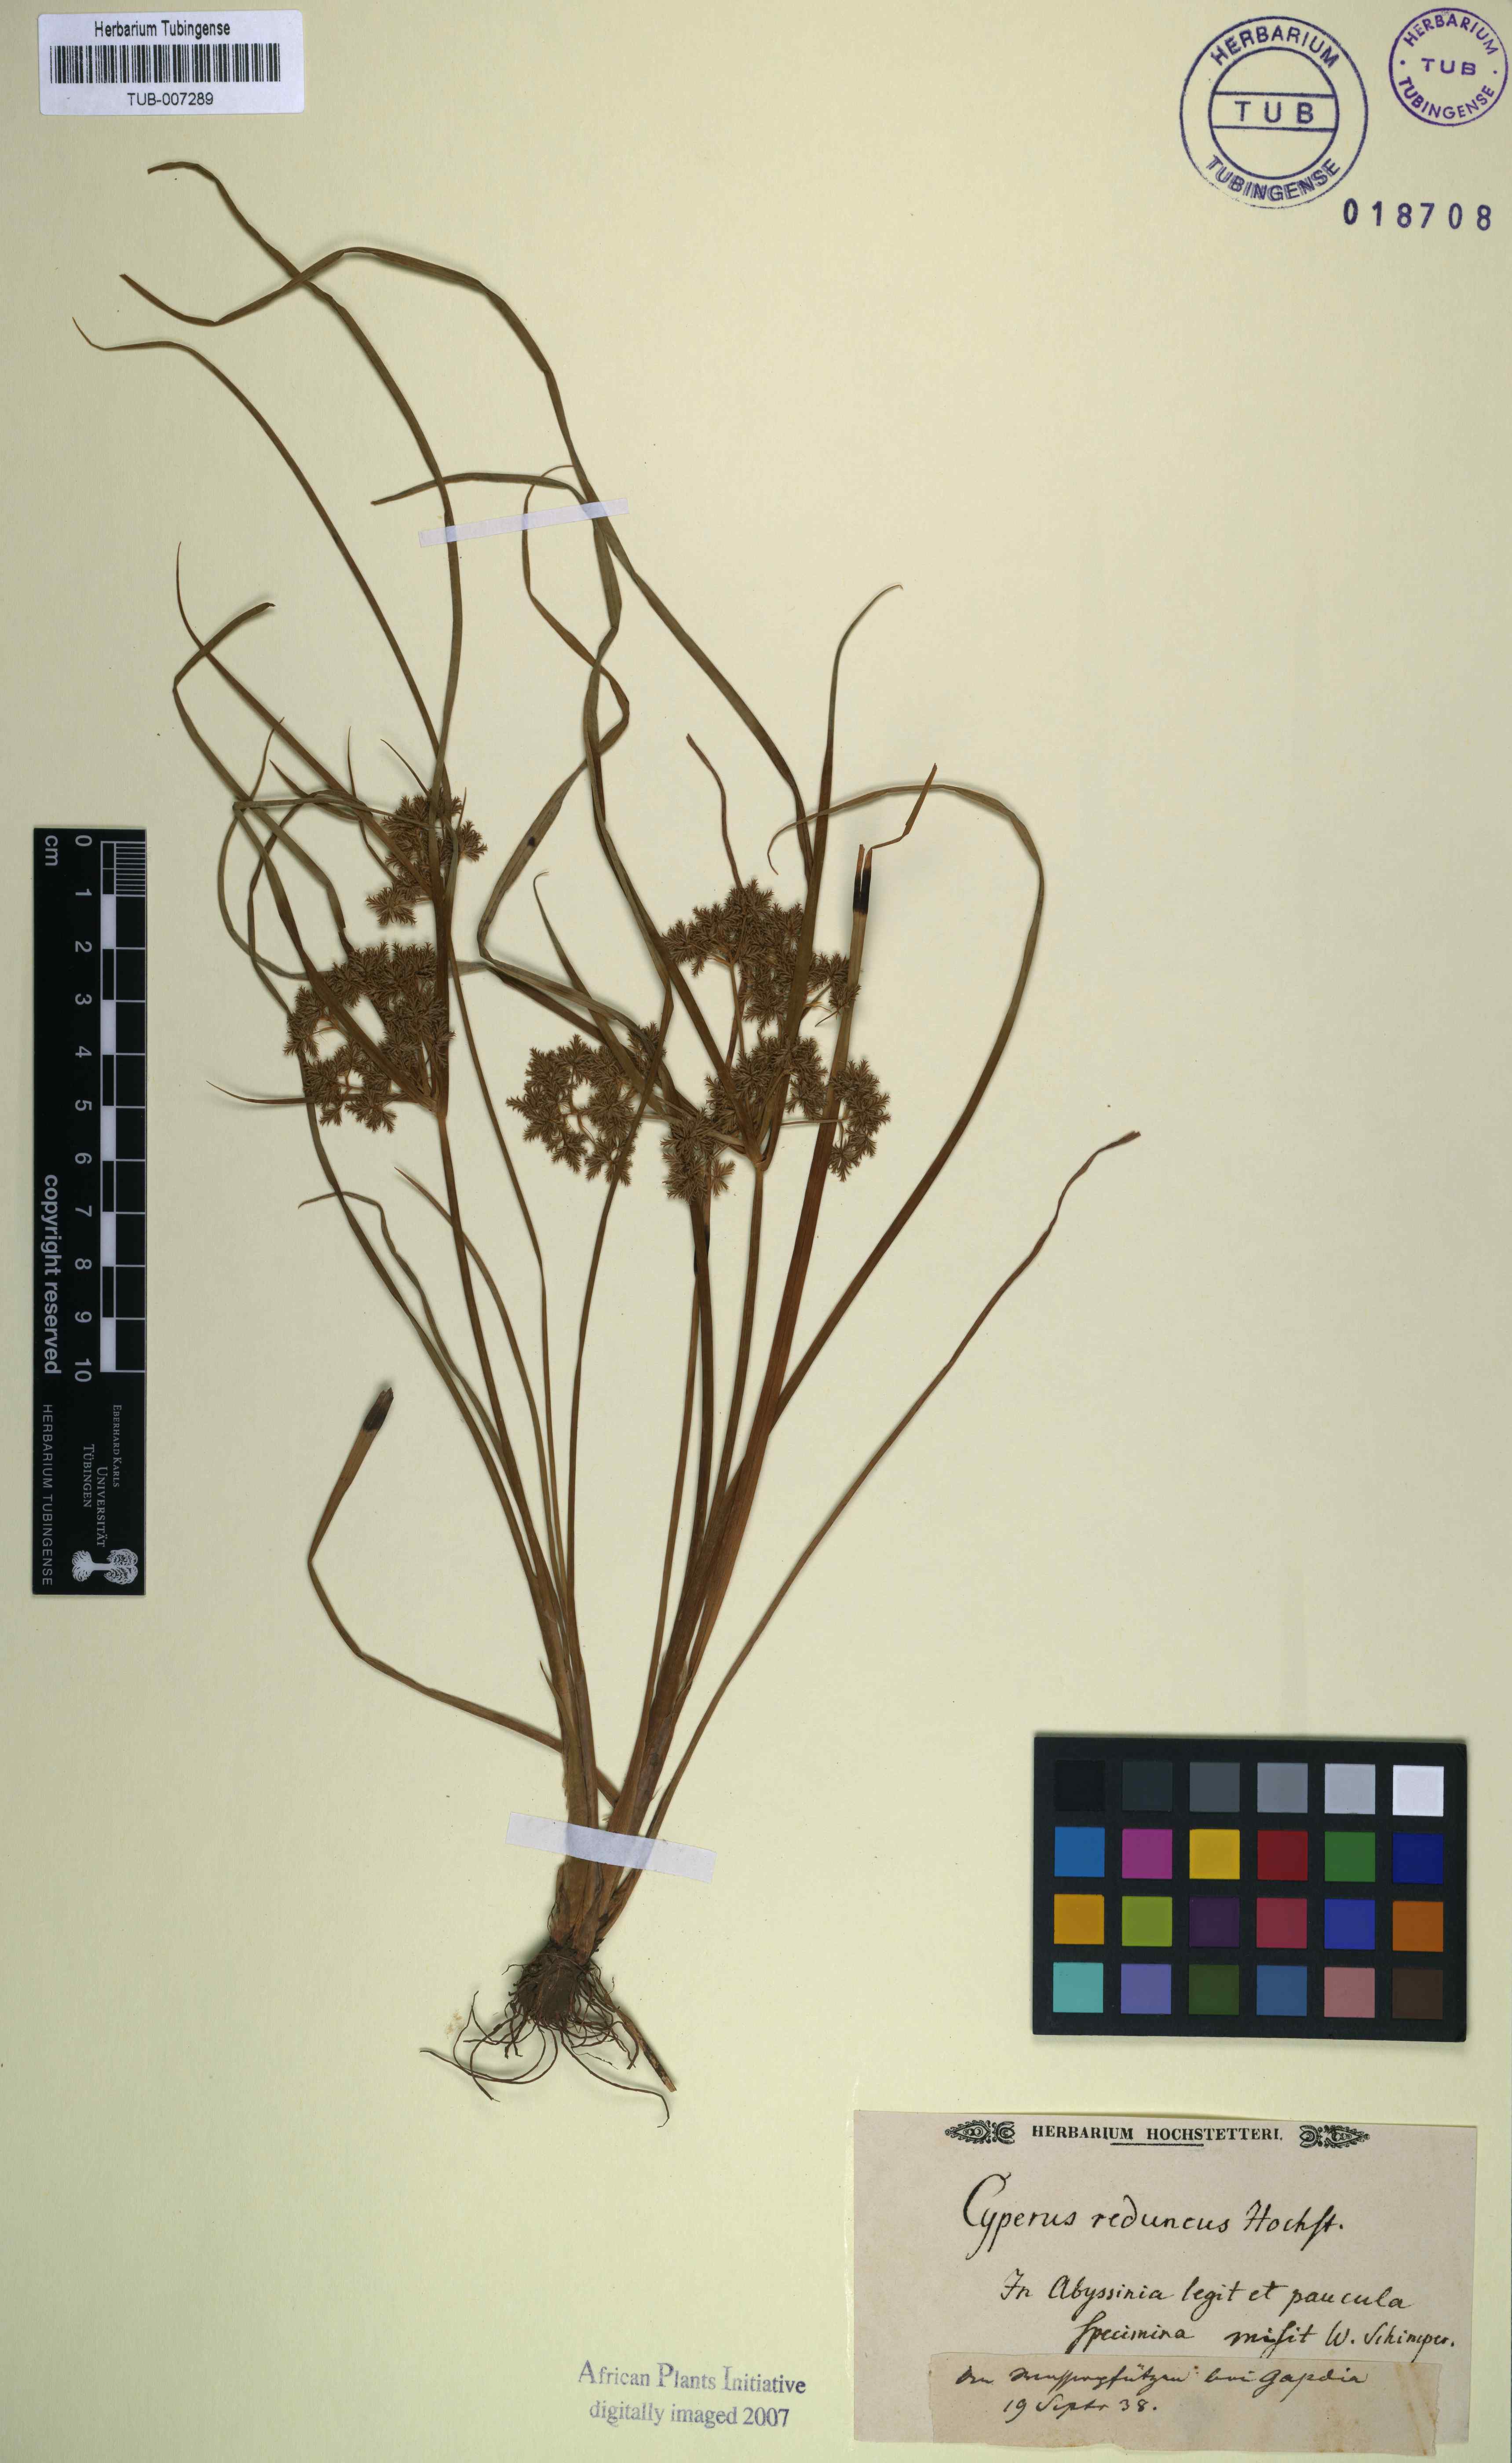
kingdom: Plantae
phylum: Tracheophyta
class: Liliopsida
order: Poales
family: Cyperaceae
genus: Cyperus
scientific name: Cyperus reduncus
